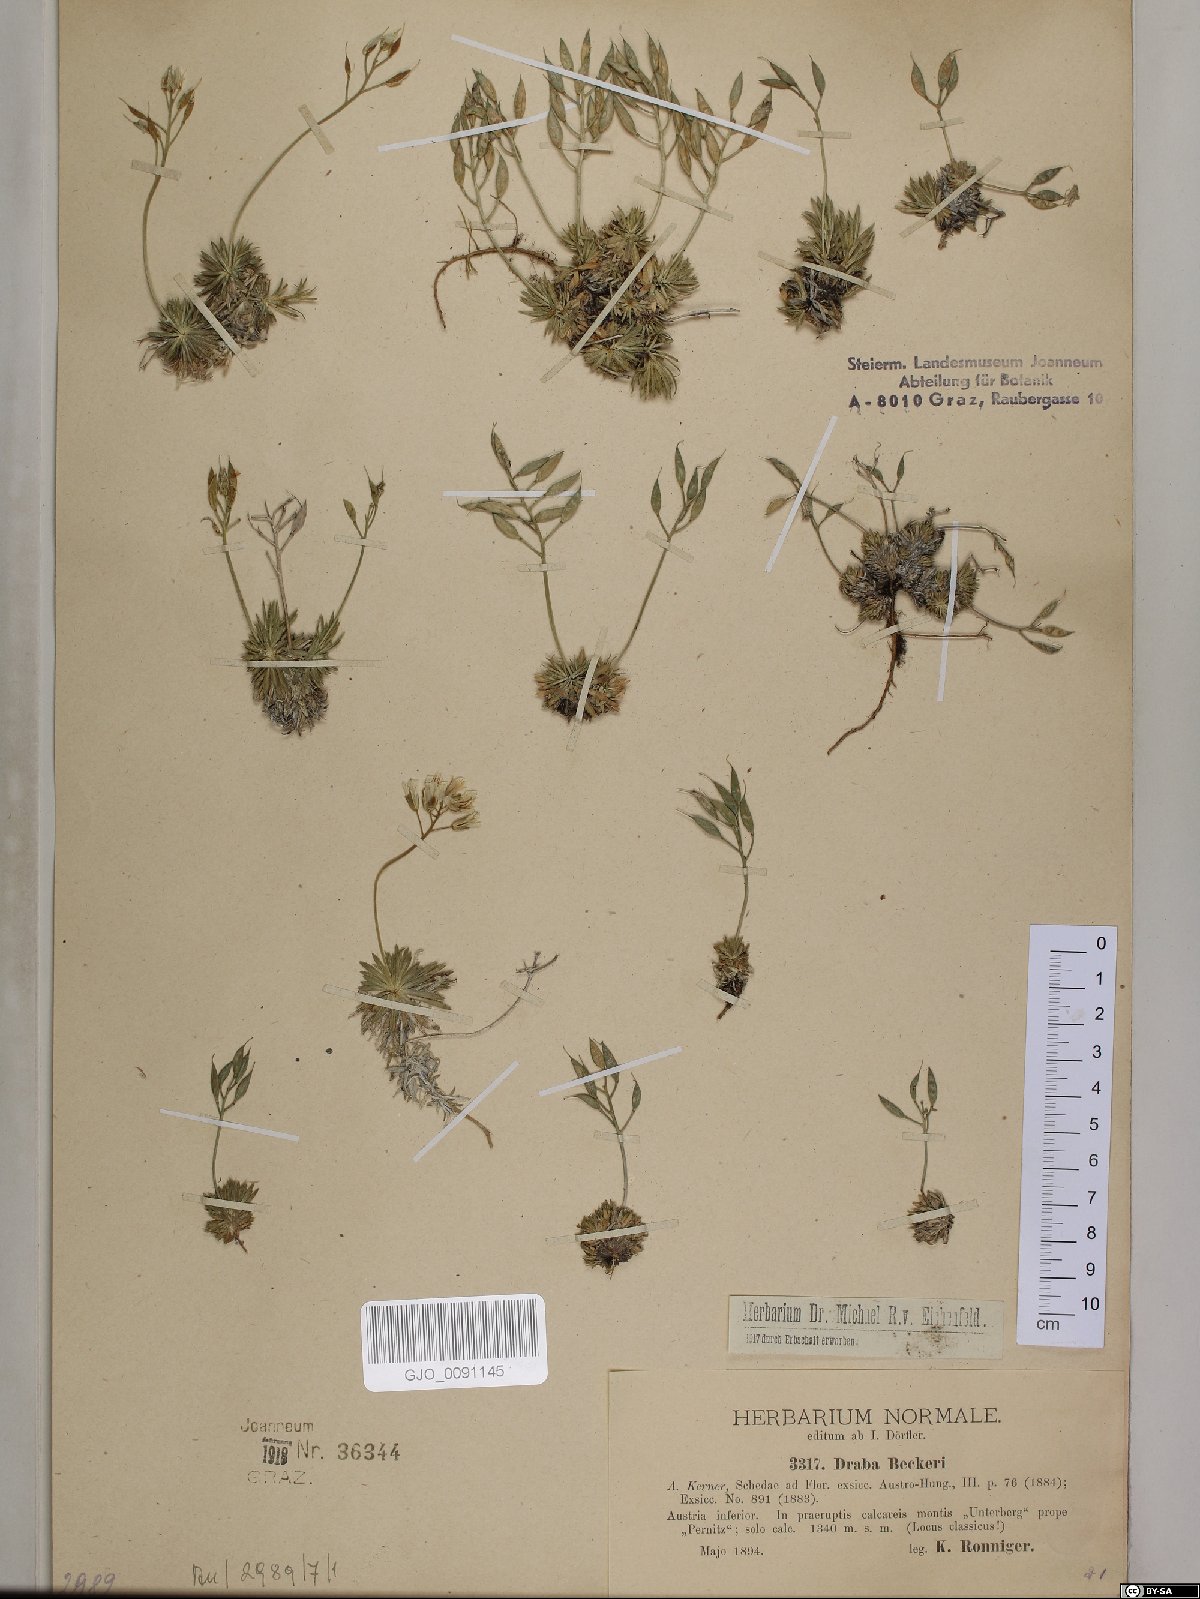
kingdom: Plantae
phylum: Tracheophyta
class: Magnoliopsida
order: Brassicales
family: Brassicaceae
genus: Draba
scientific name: Draba aizoides
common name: Yellow whitlowgrass
